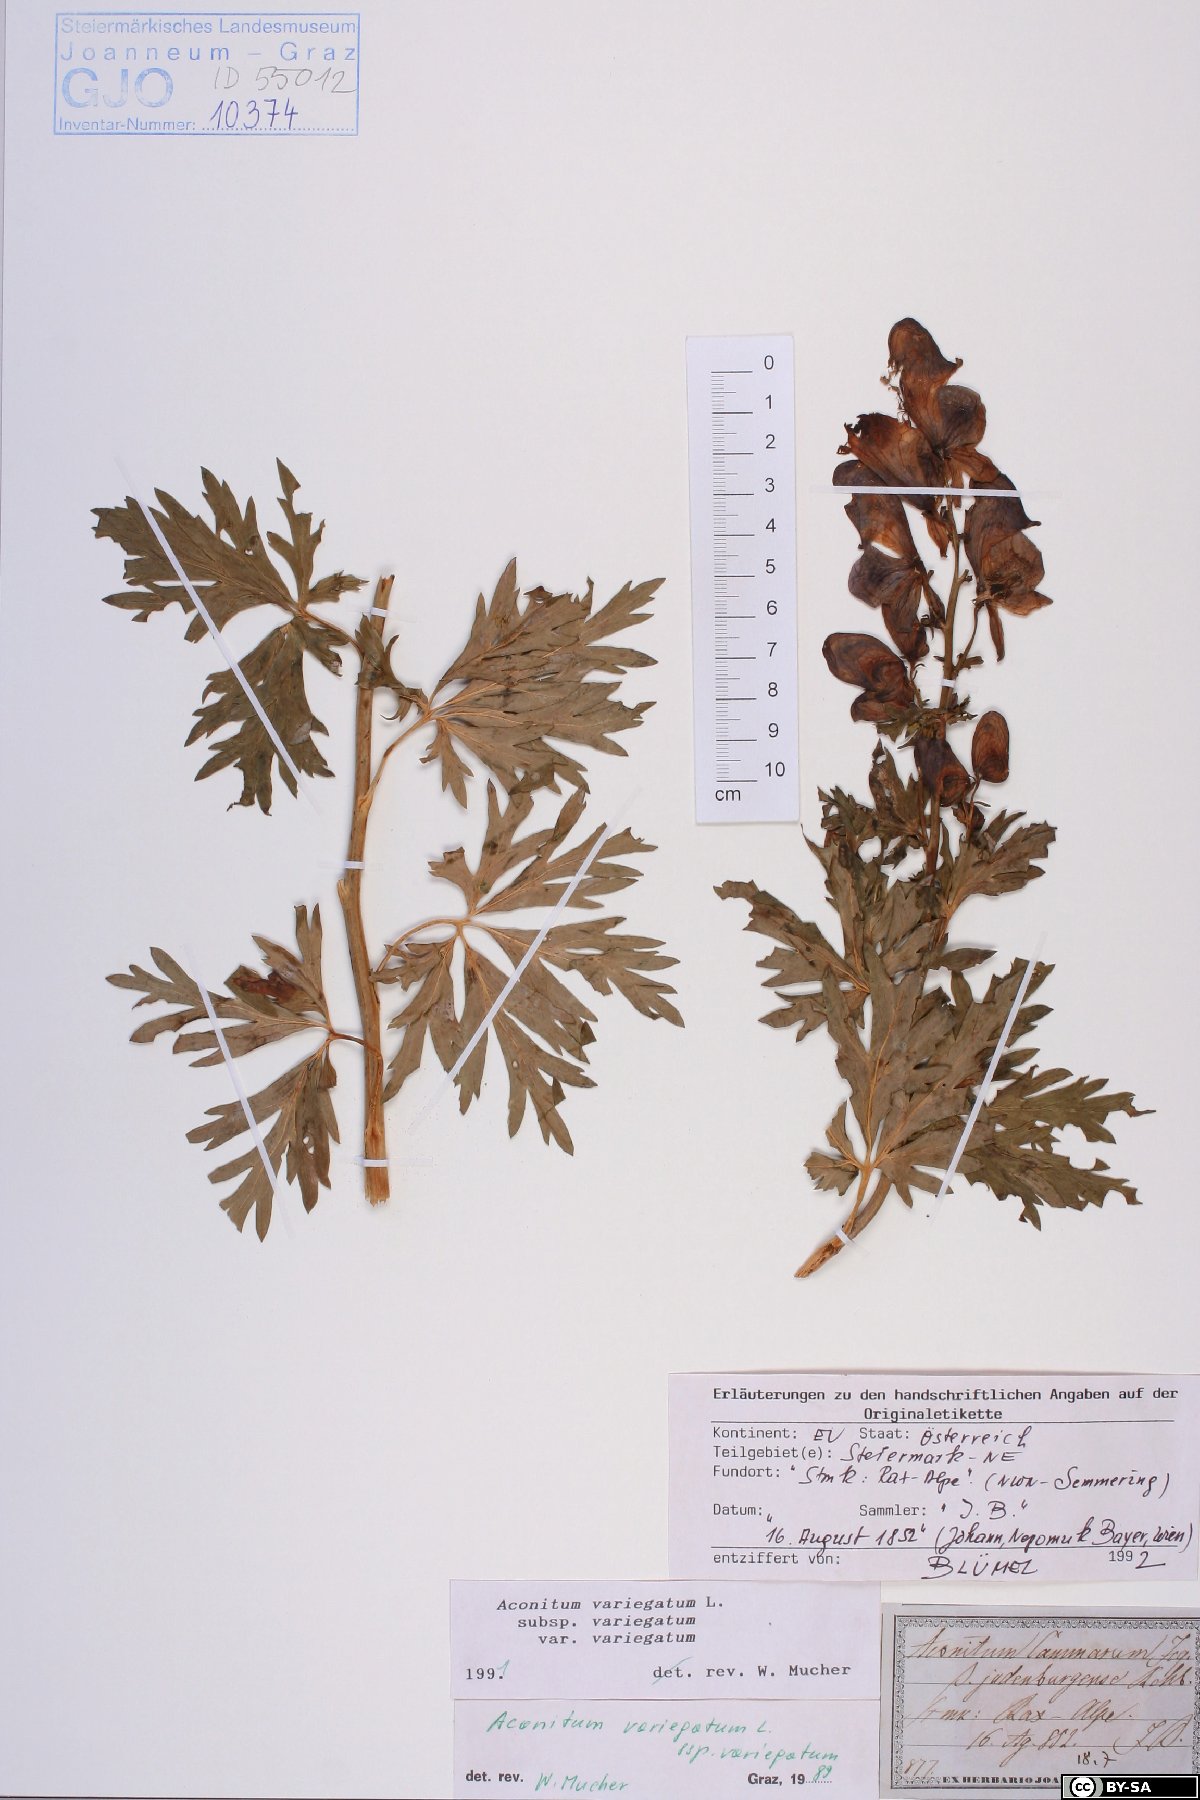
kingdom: Plantae
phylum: Tracheophyta
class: Magnoliopsida
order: Ranunculales
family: Ranunculaceae
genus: Aconitum
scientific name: Aconitum variegatum
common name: Manchurian monkshood
